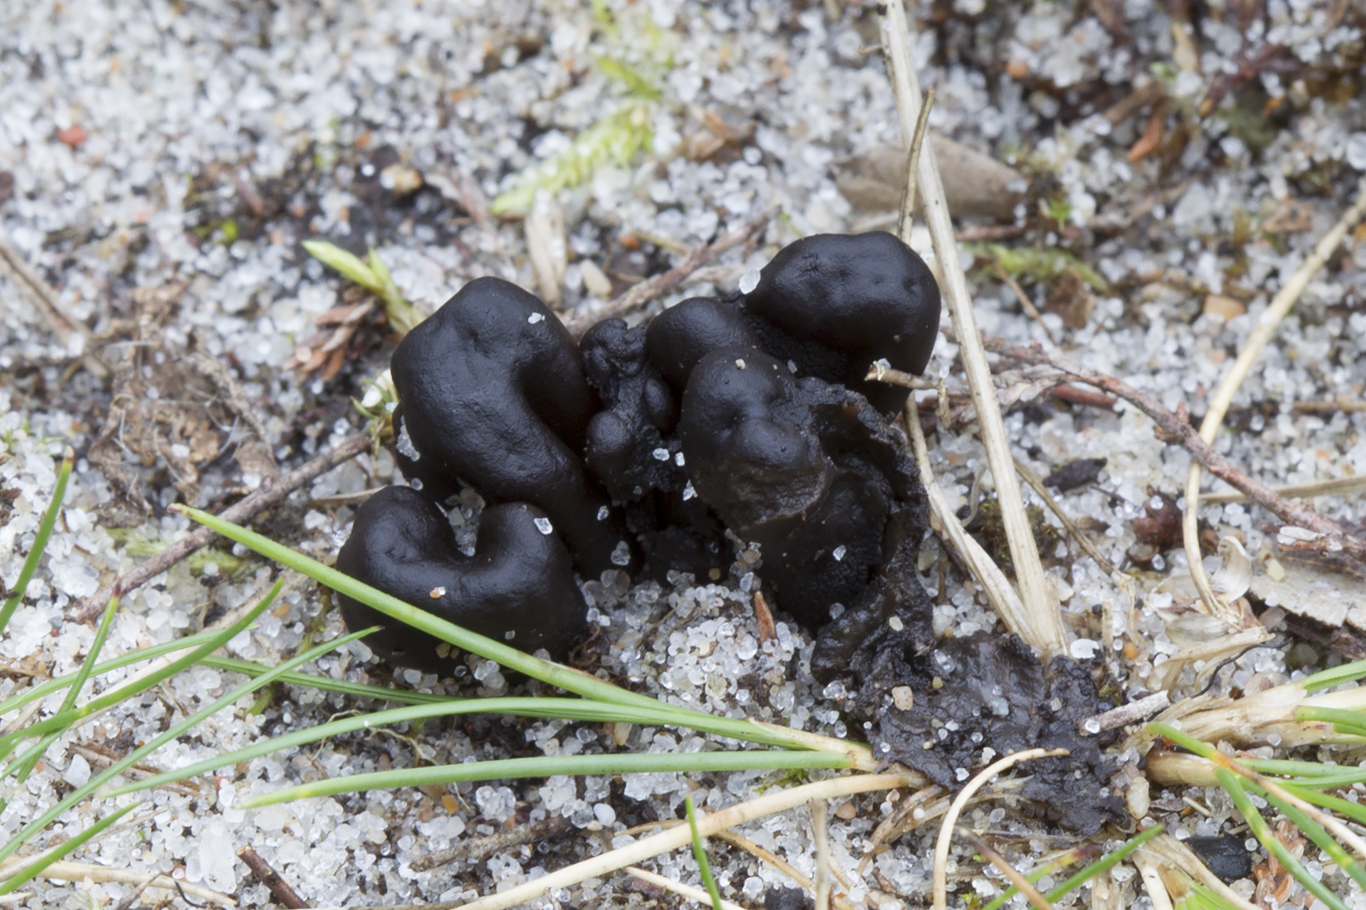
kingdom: Fungi
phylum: Ascomycota
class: Geoglossomycetes
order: Geoglossales
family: Geoglossaceae
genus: Sabuloglossum
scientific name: Sabuloglossum arenarium
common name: klit-jordtunge
